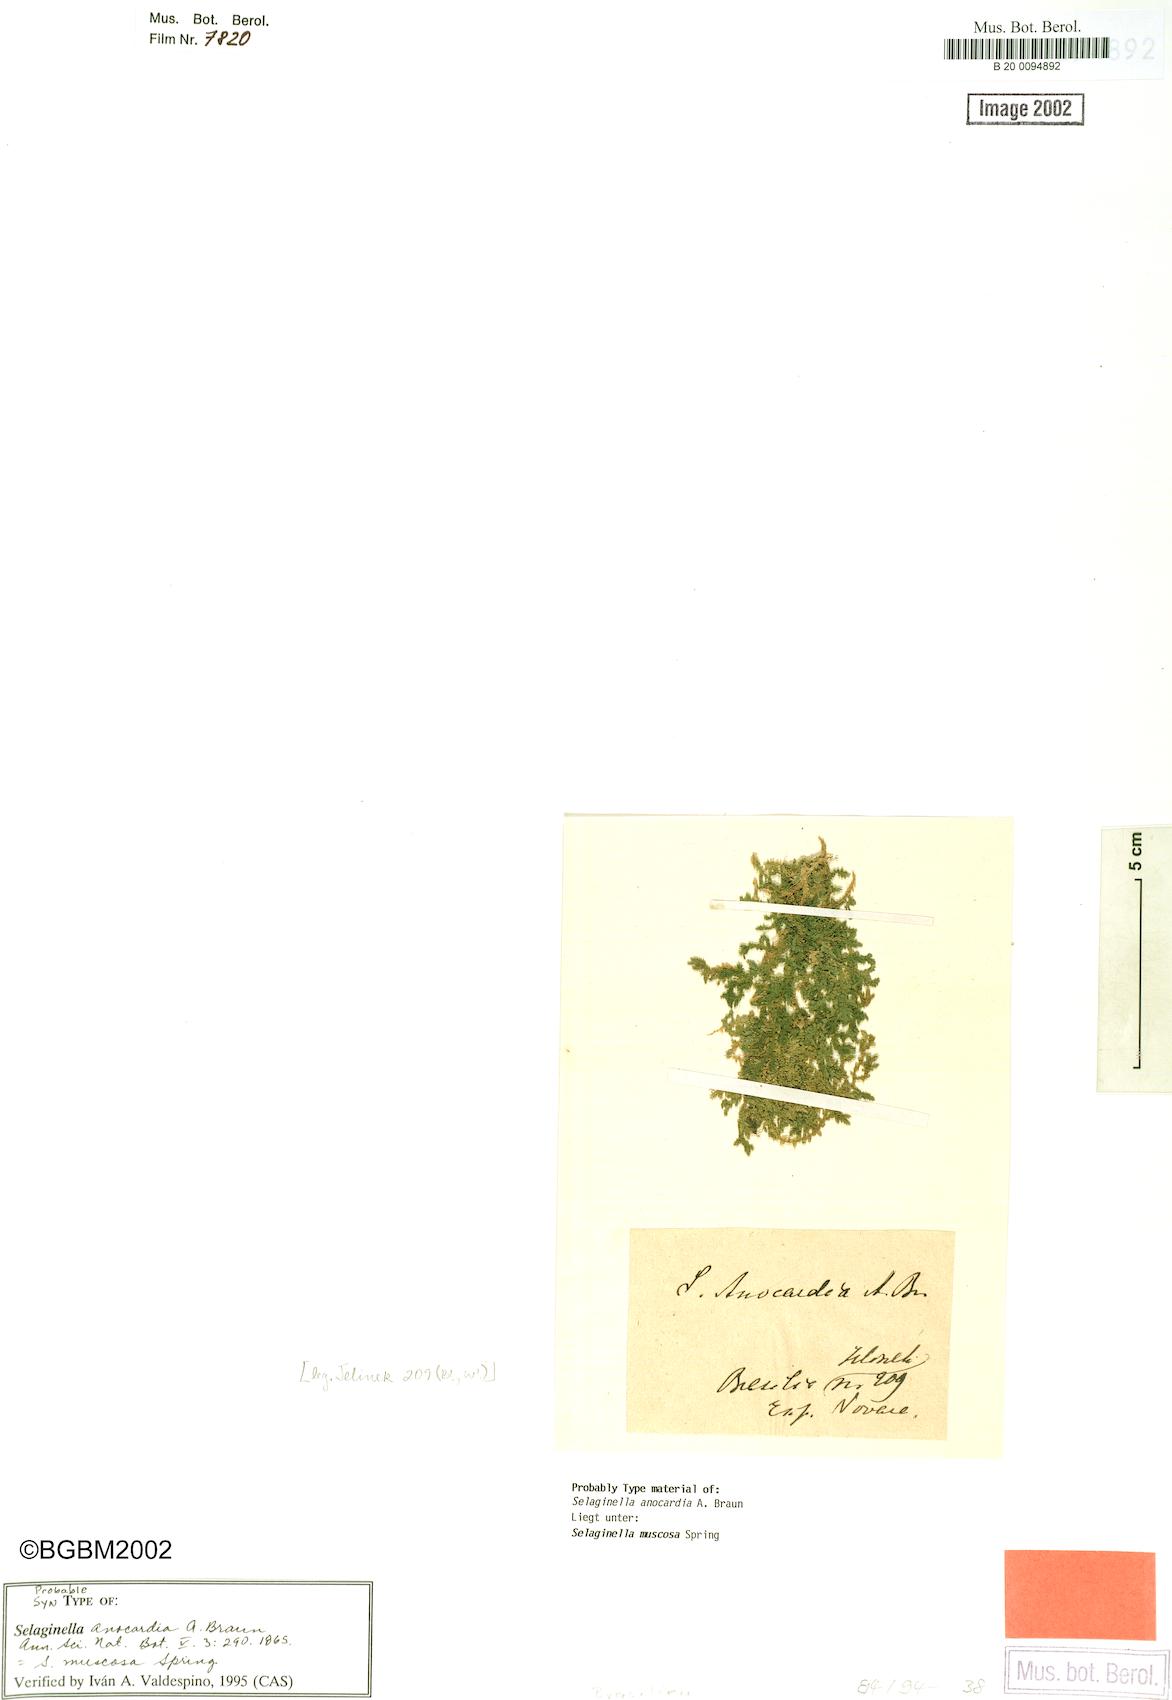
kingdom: Plantae
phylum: Tracheophyta
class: Lycopodiopsida
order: Selaginellales
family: Selaginellaceae
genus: Selaginella
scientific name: Selaginella muscosa
